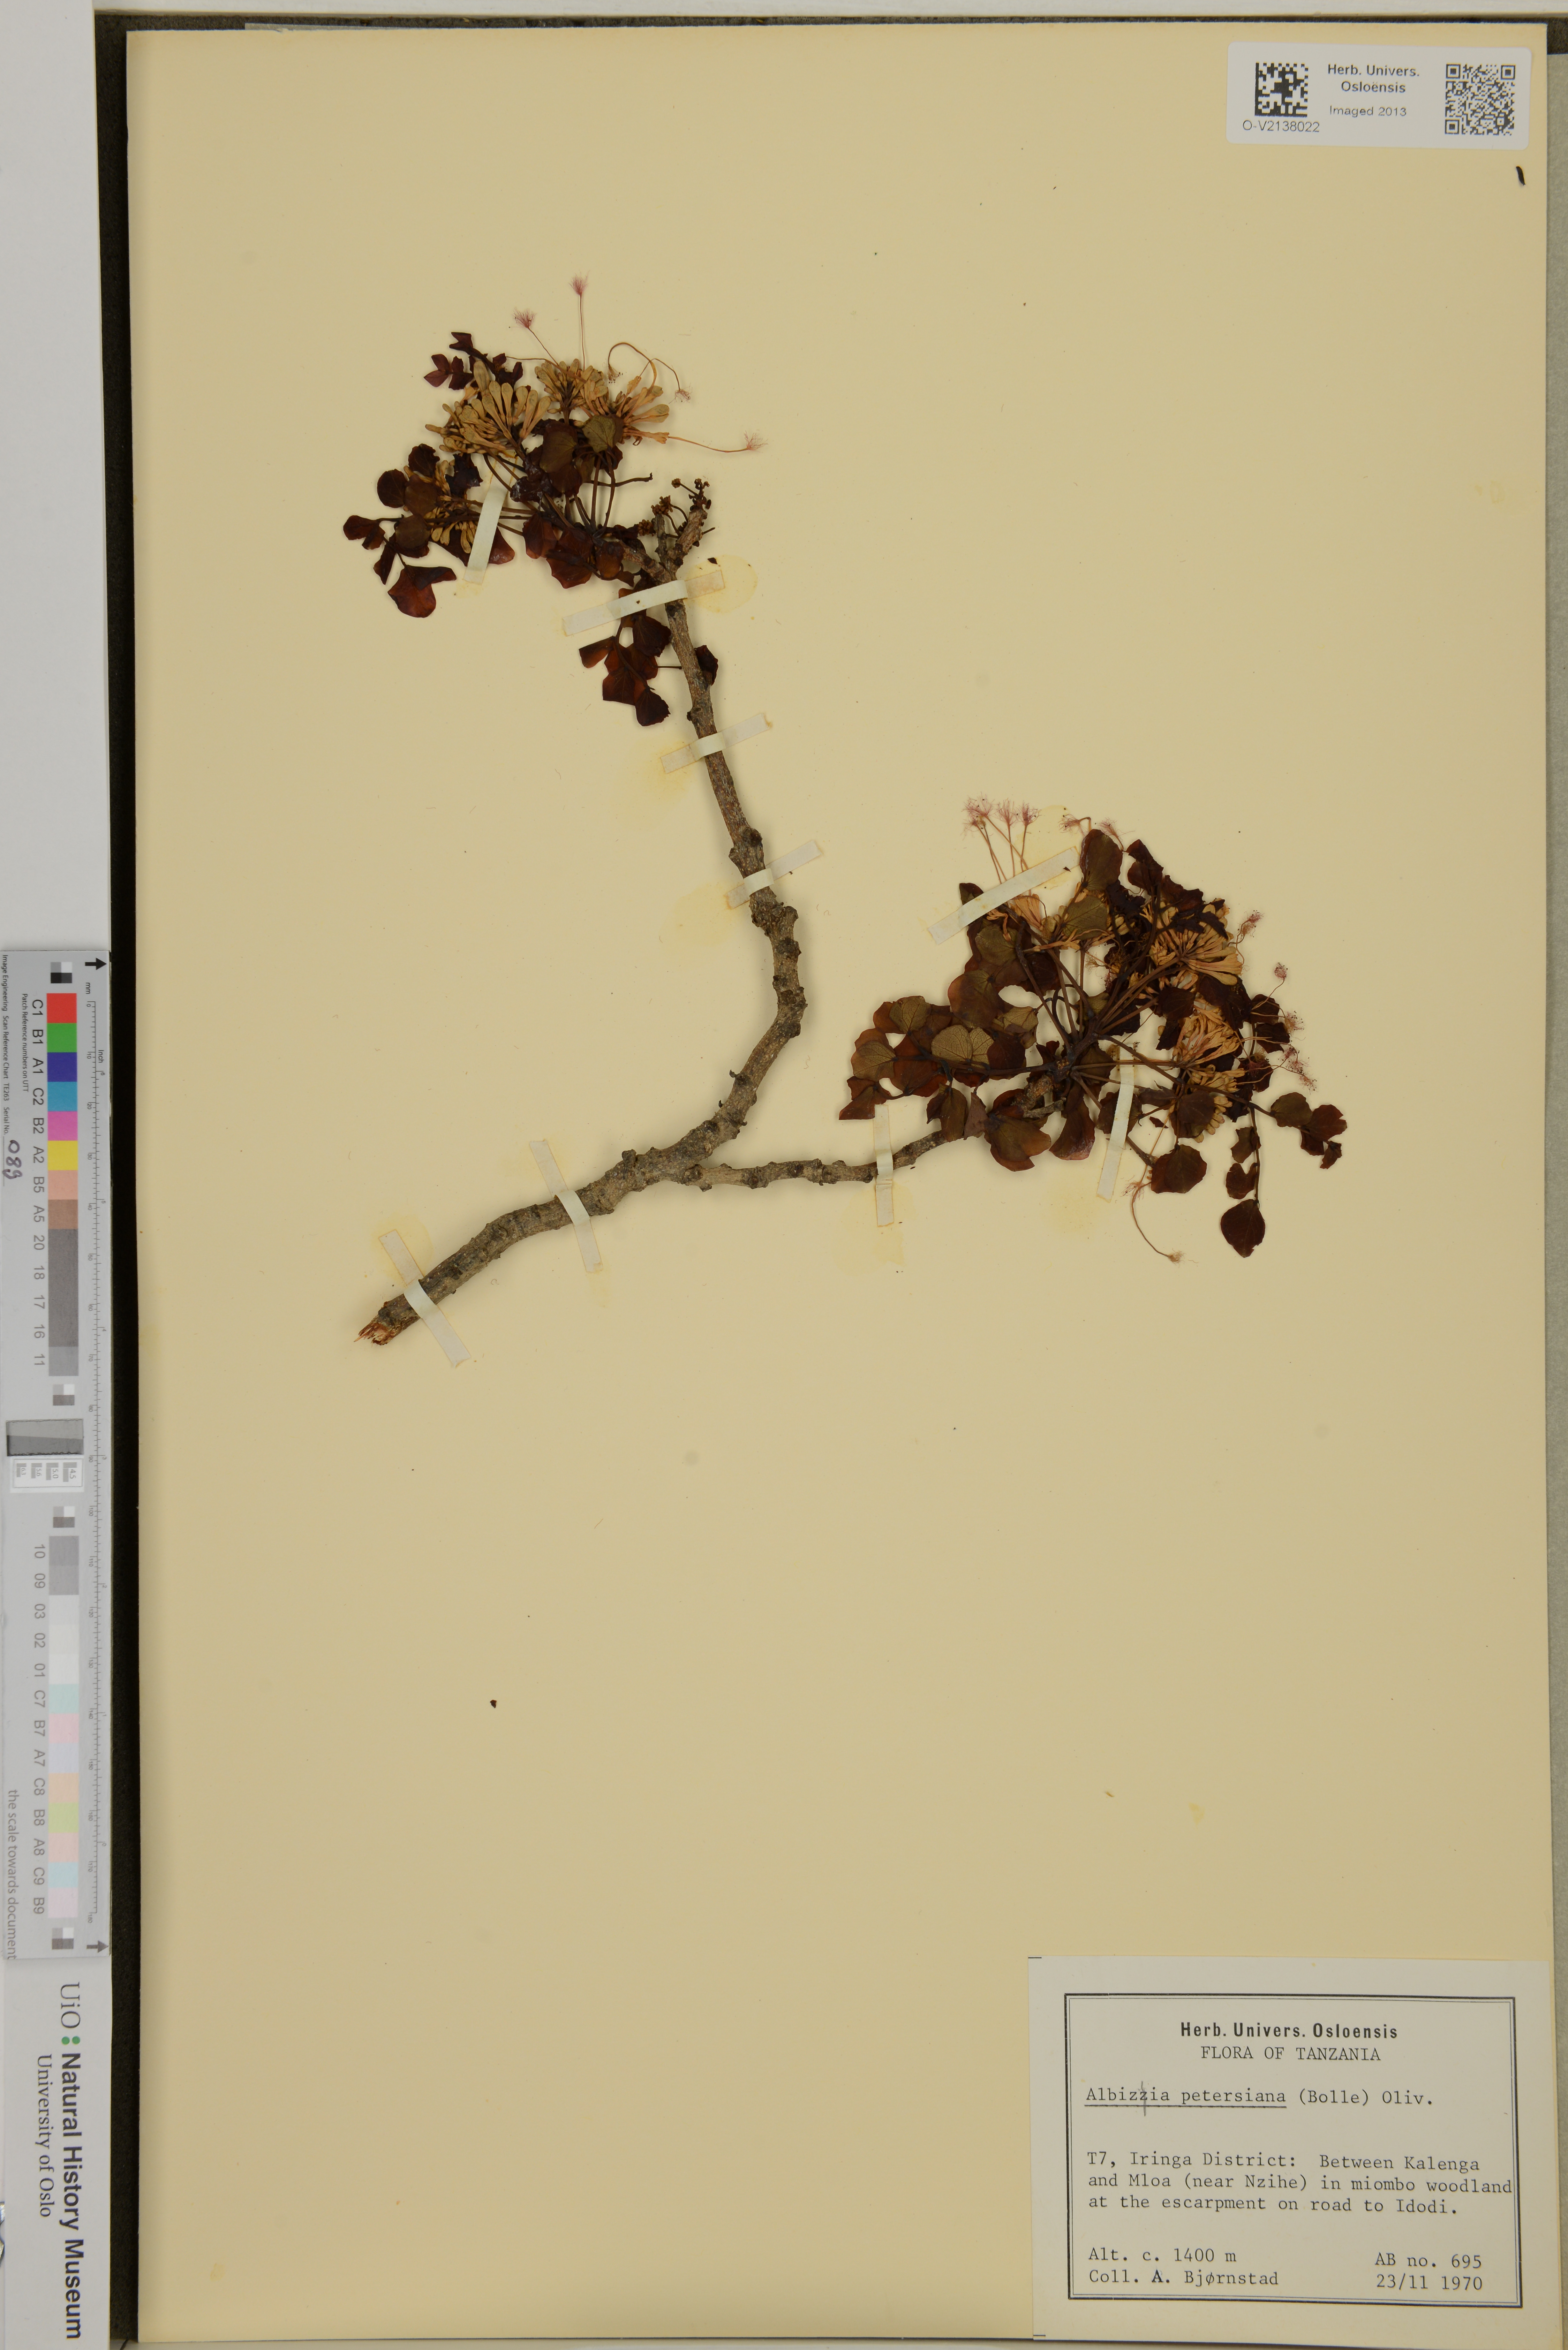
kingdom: Plantae
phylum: Tracheophyta
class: Magnoliopsida
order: Fabales
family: Fabaceae
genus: Albizia
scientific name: Albizia petersiana
